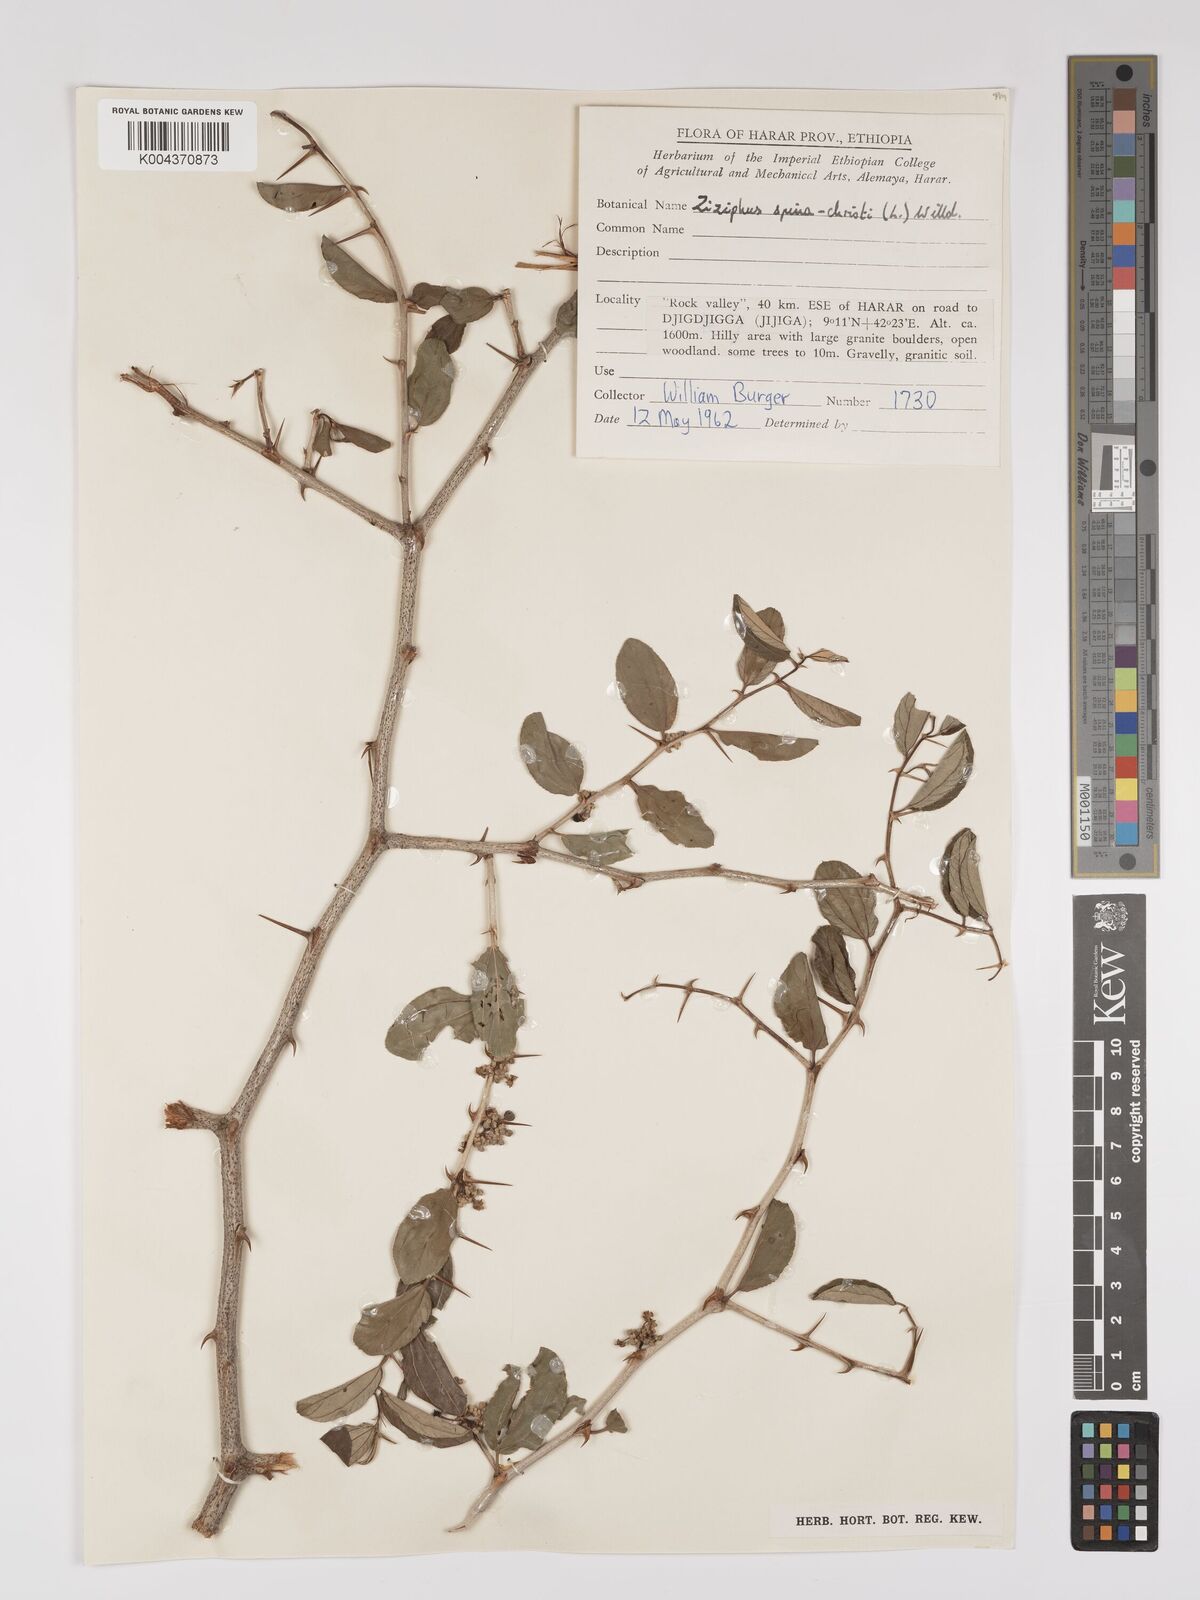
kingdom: Plantae
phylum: Tracheophyta
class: Magnoliopsida
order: Rosales
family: Rhamnaceae
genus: Ziziphus
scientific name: Ziziphus spina-christi
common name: Syrian christ-thorn
